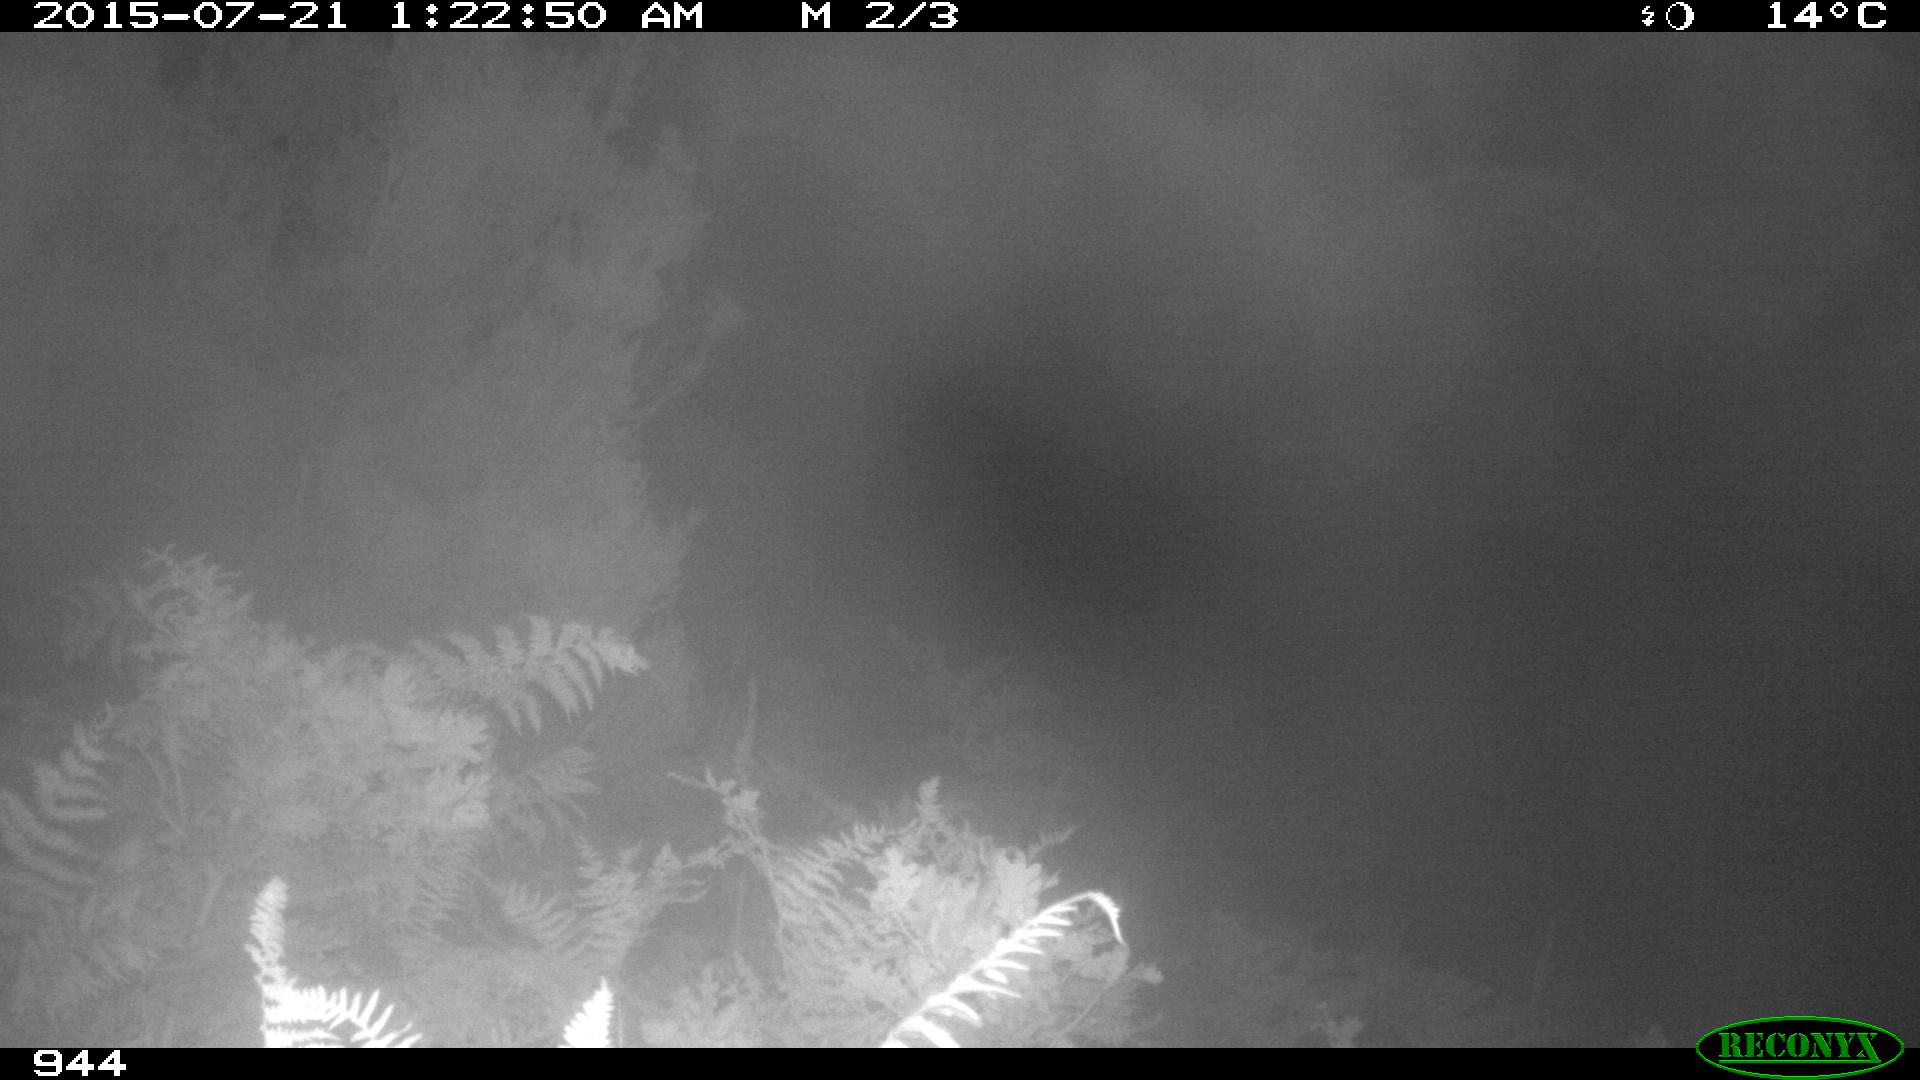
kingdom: Animalia
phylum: Chordata
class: Mammalia
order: Artiodactyla
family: Bovidae
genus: Bos
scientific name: Bos taurus
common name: Domesticated cattle
